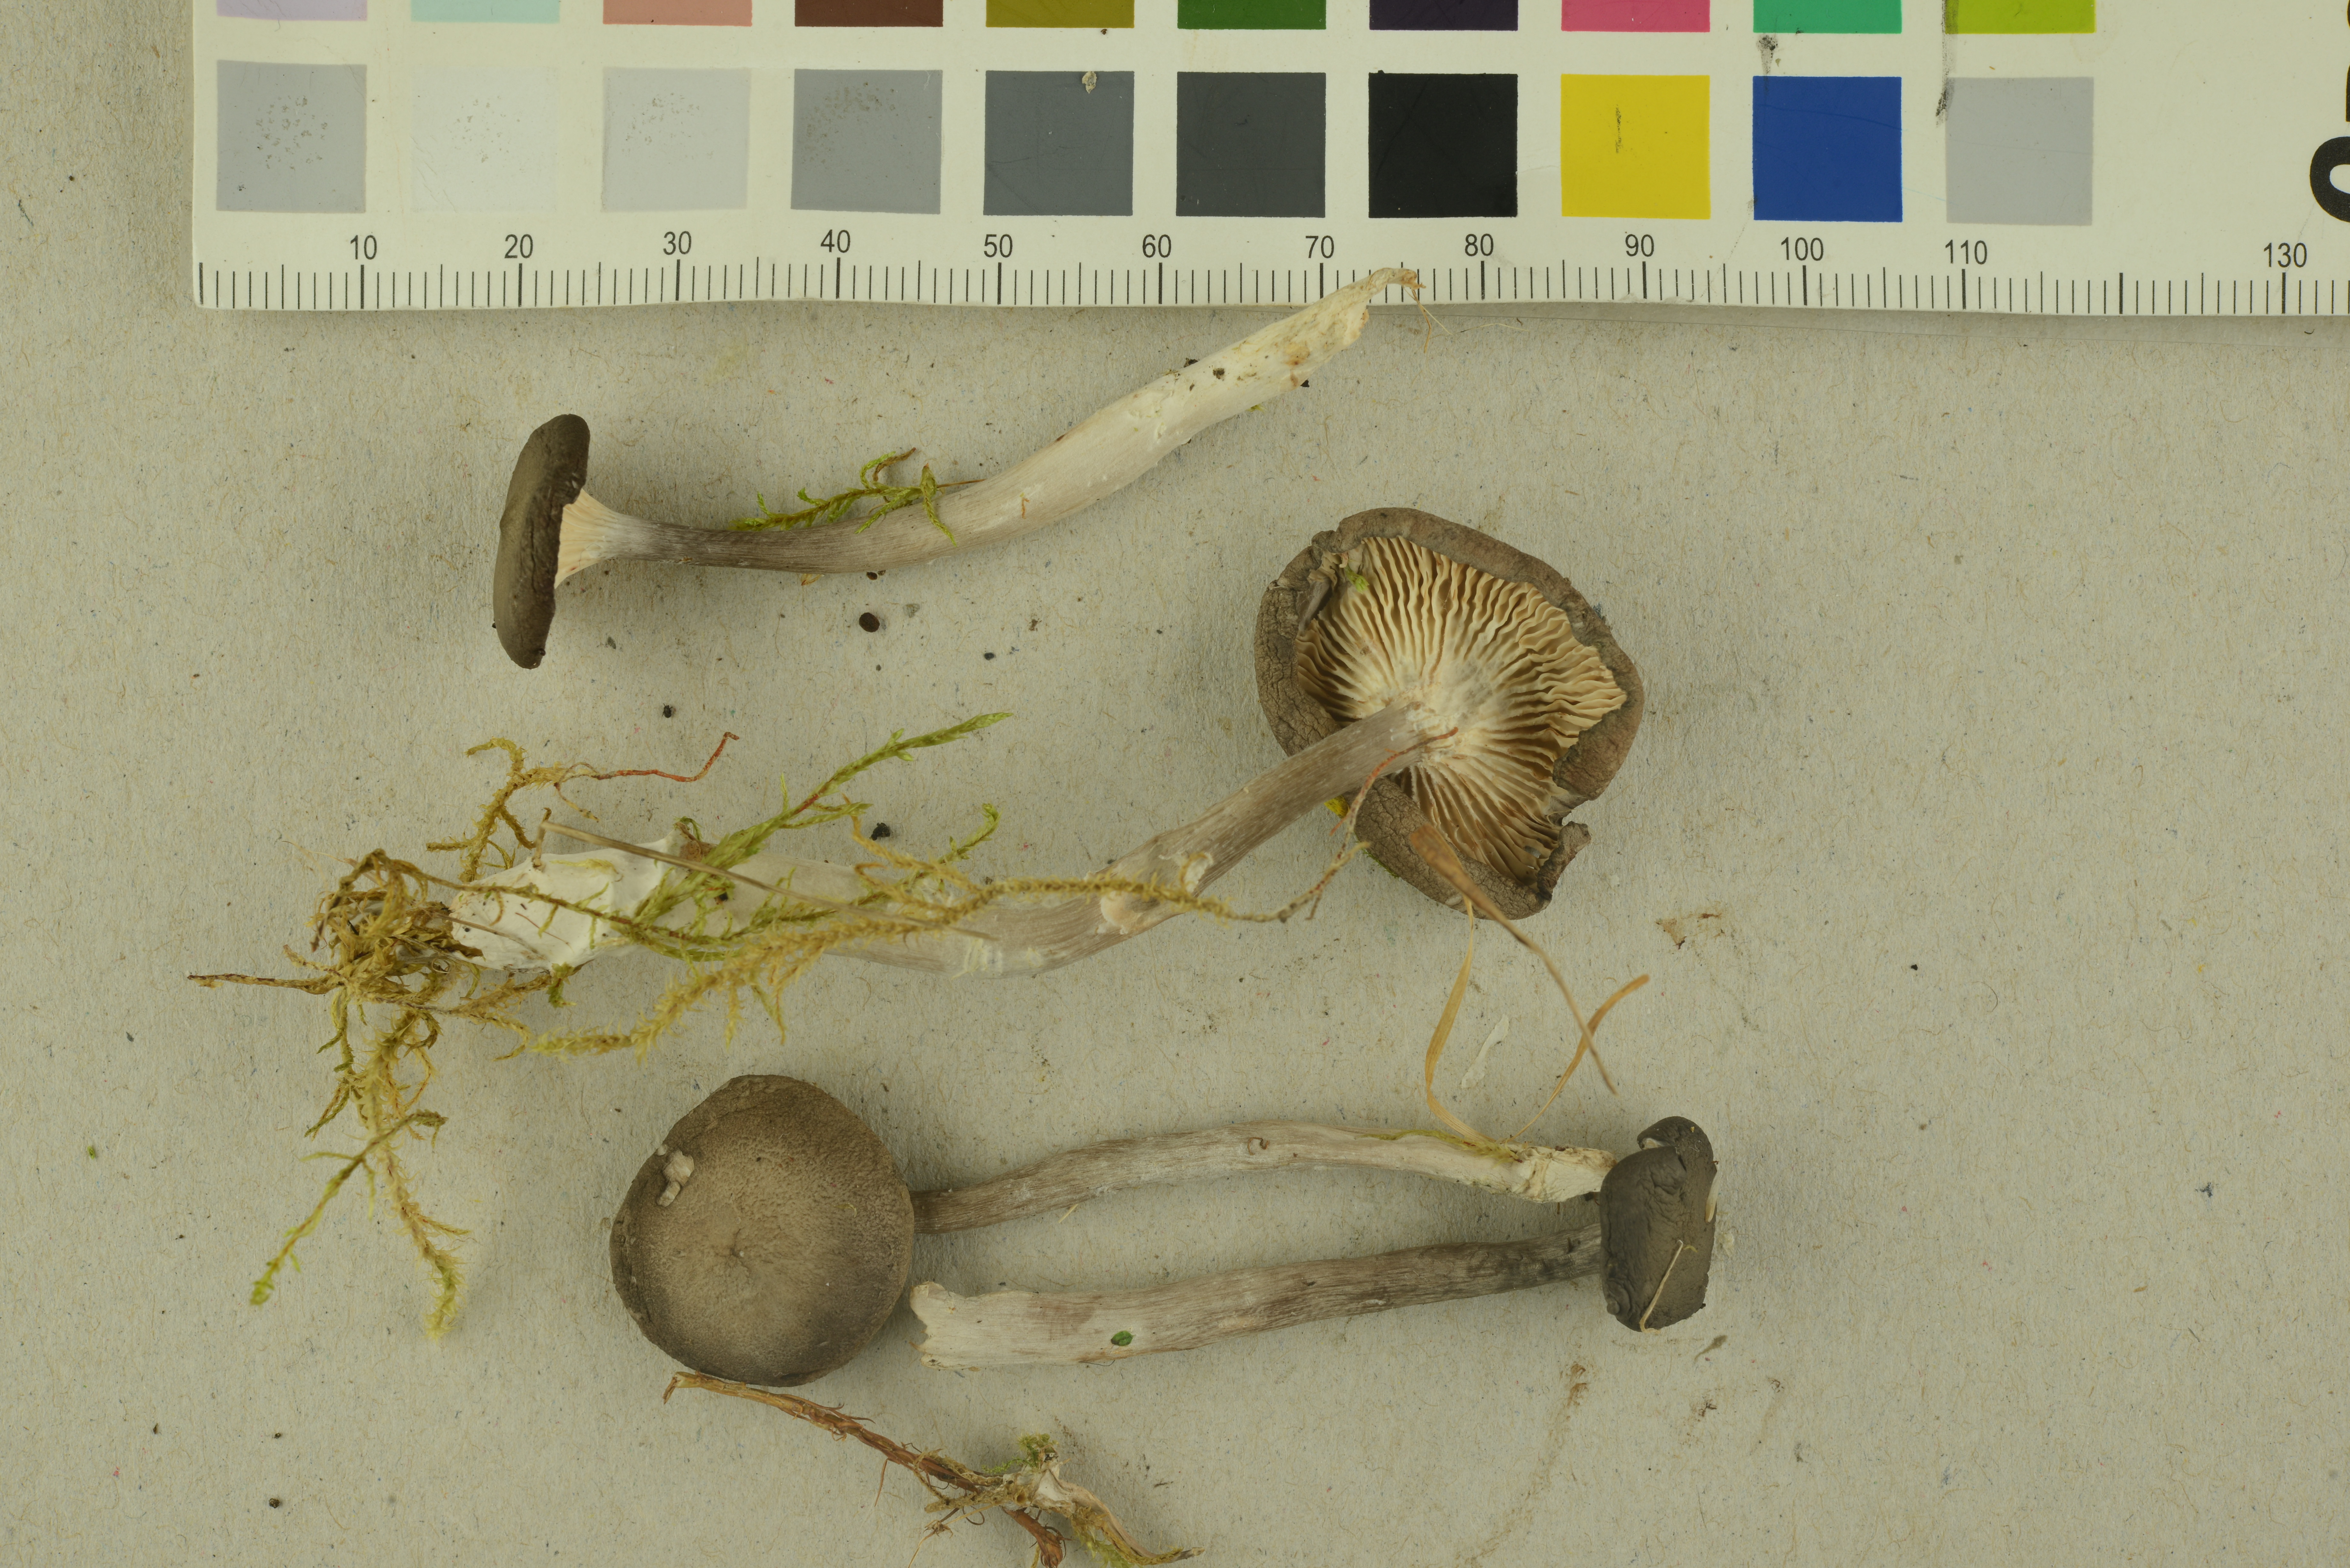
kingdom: Fungi
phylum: Basidiomycota
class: Agaricomycetes
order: Agaricales
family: Hygrophoraceae
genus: Cantharellula
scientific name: Cantharellula umbonata
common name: The humpback
